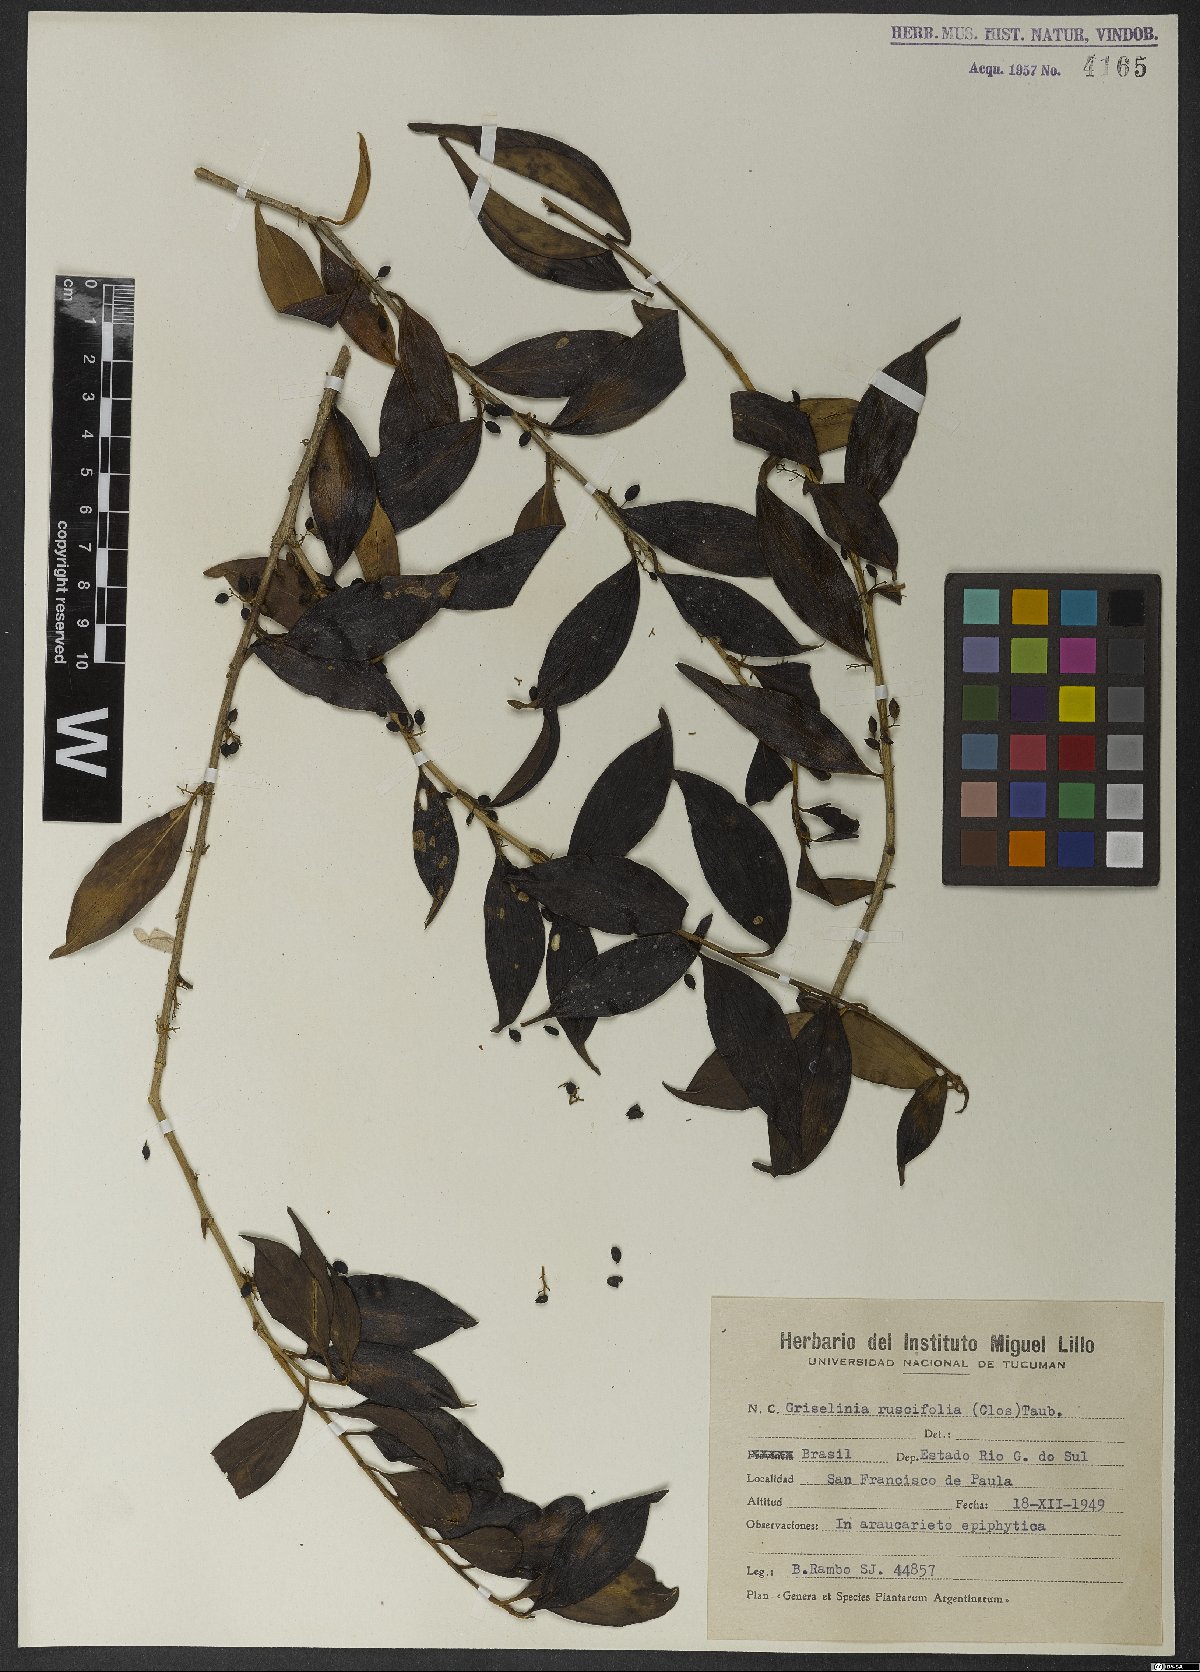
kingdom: Plantae
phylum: Tracheophyta
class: Magnoliopsida
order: Apiales
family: Griseliniaceae
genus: Griselinia
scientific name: Griselinia ruscifolia
